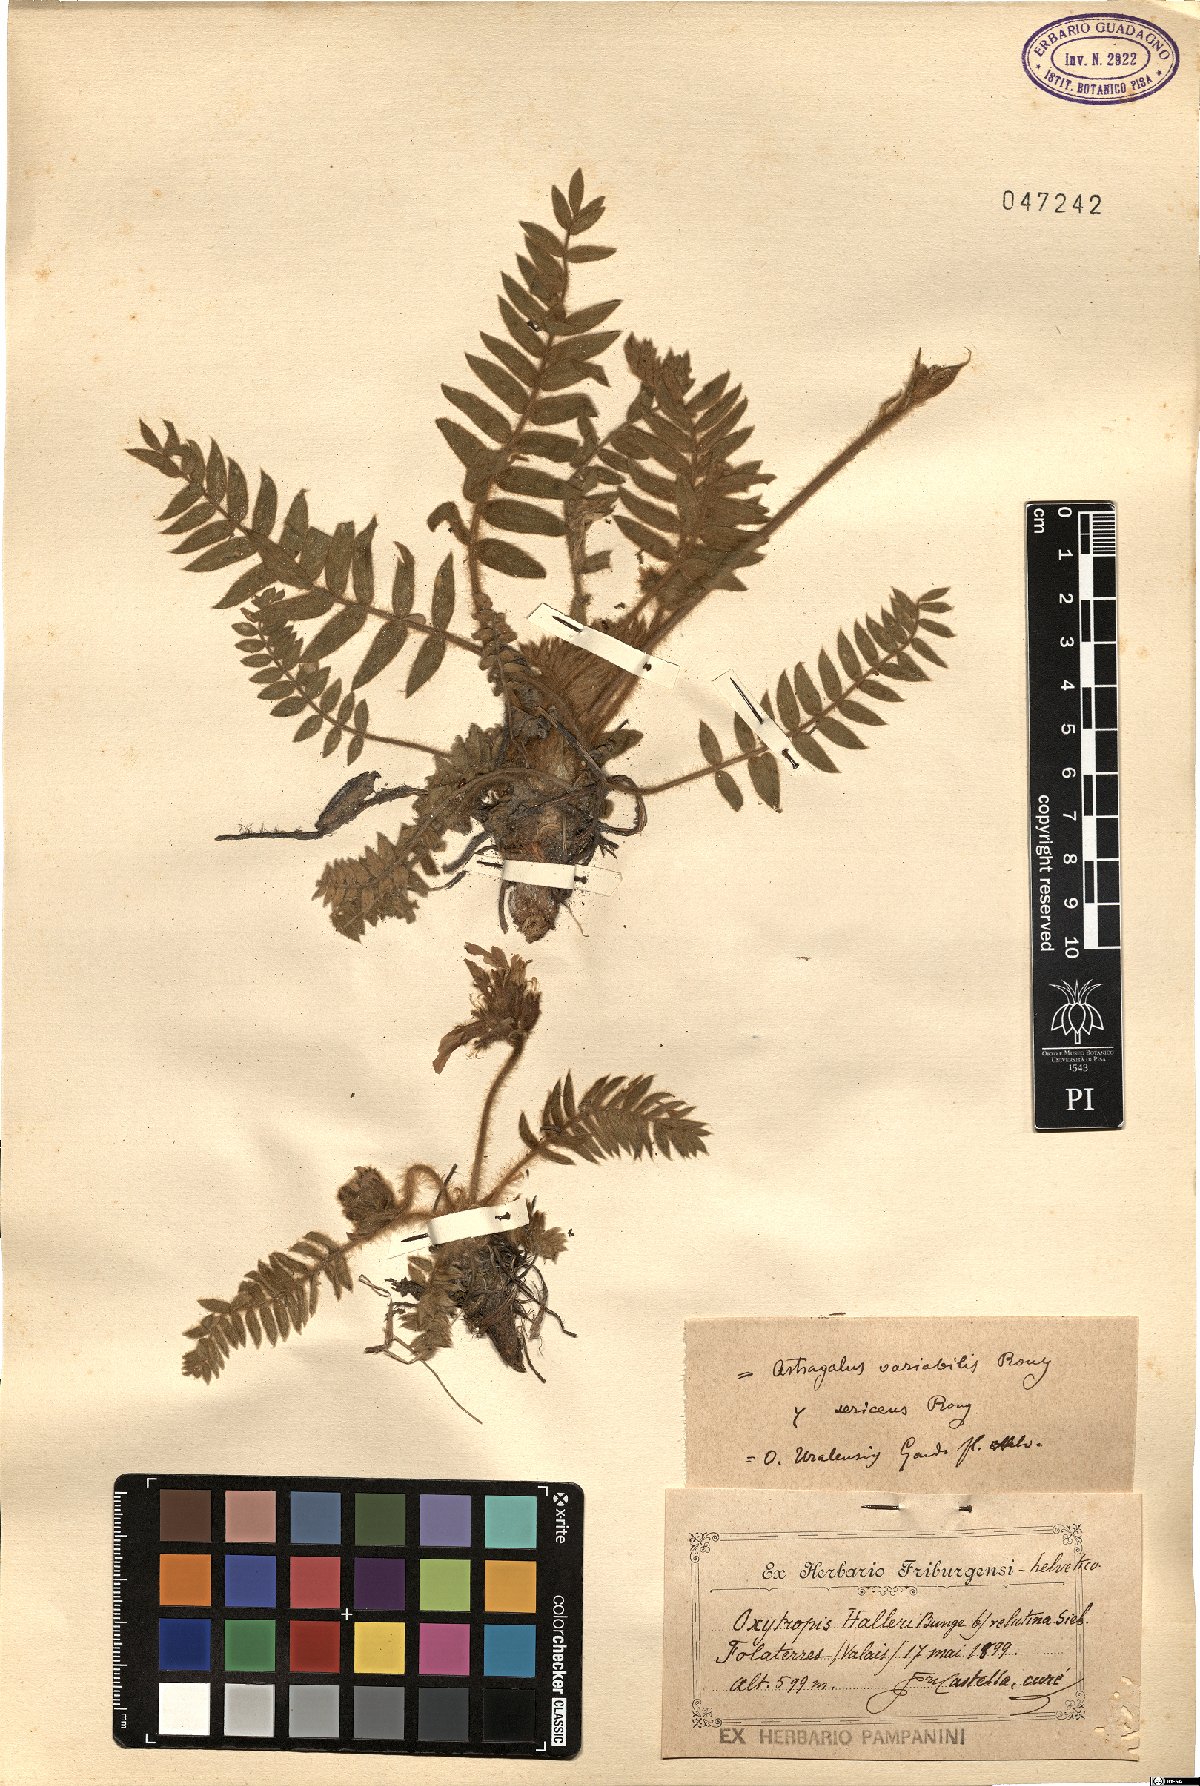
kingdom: Plantae
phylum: Tracheophyta
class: Magnoliopsida
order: Fabales
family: Fabaceae
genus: Oxytropis
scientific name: Oxytropis uralensis
